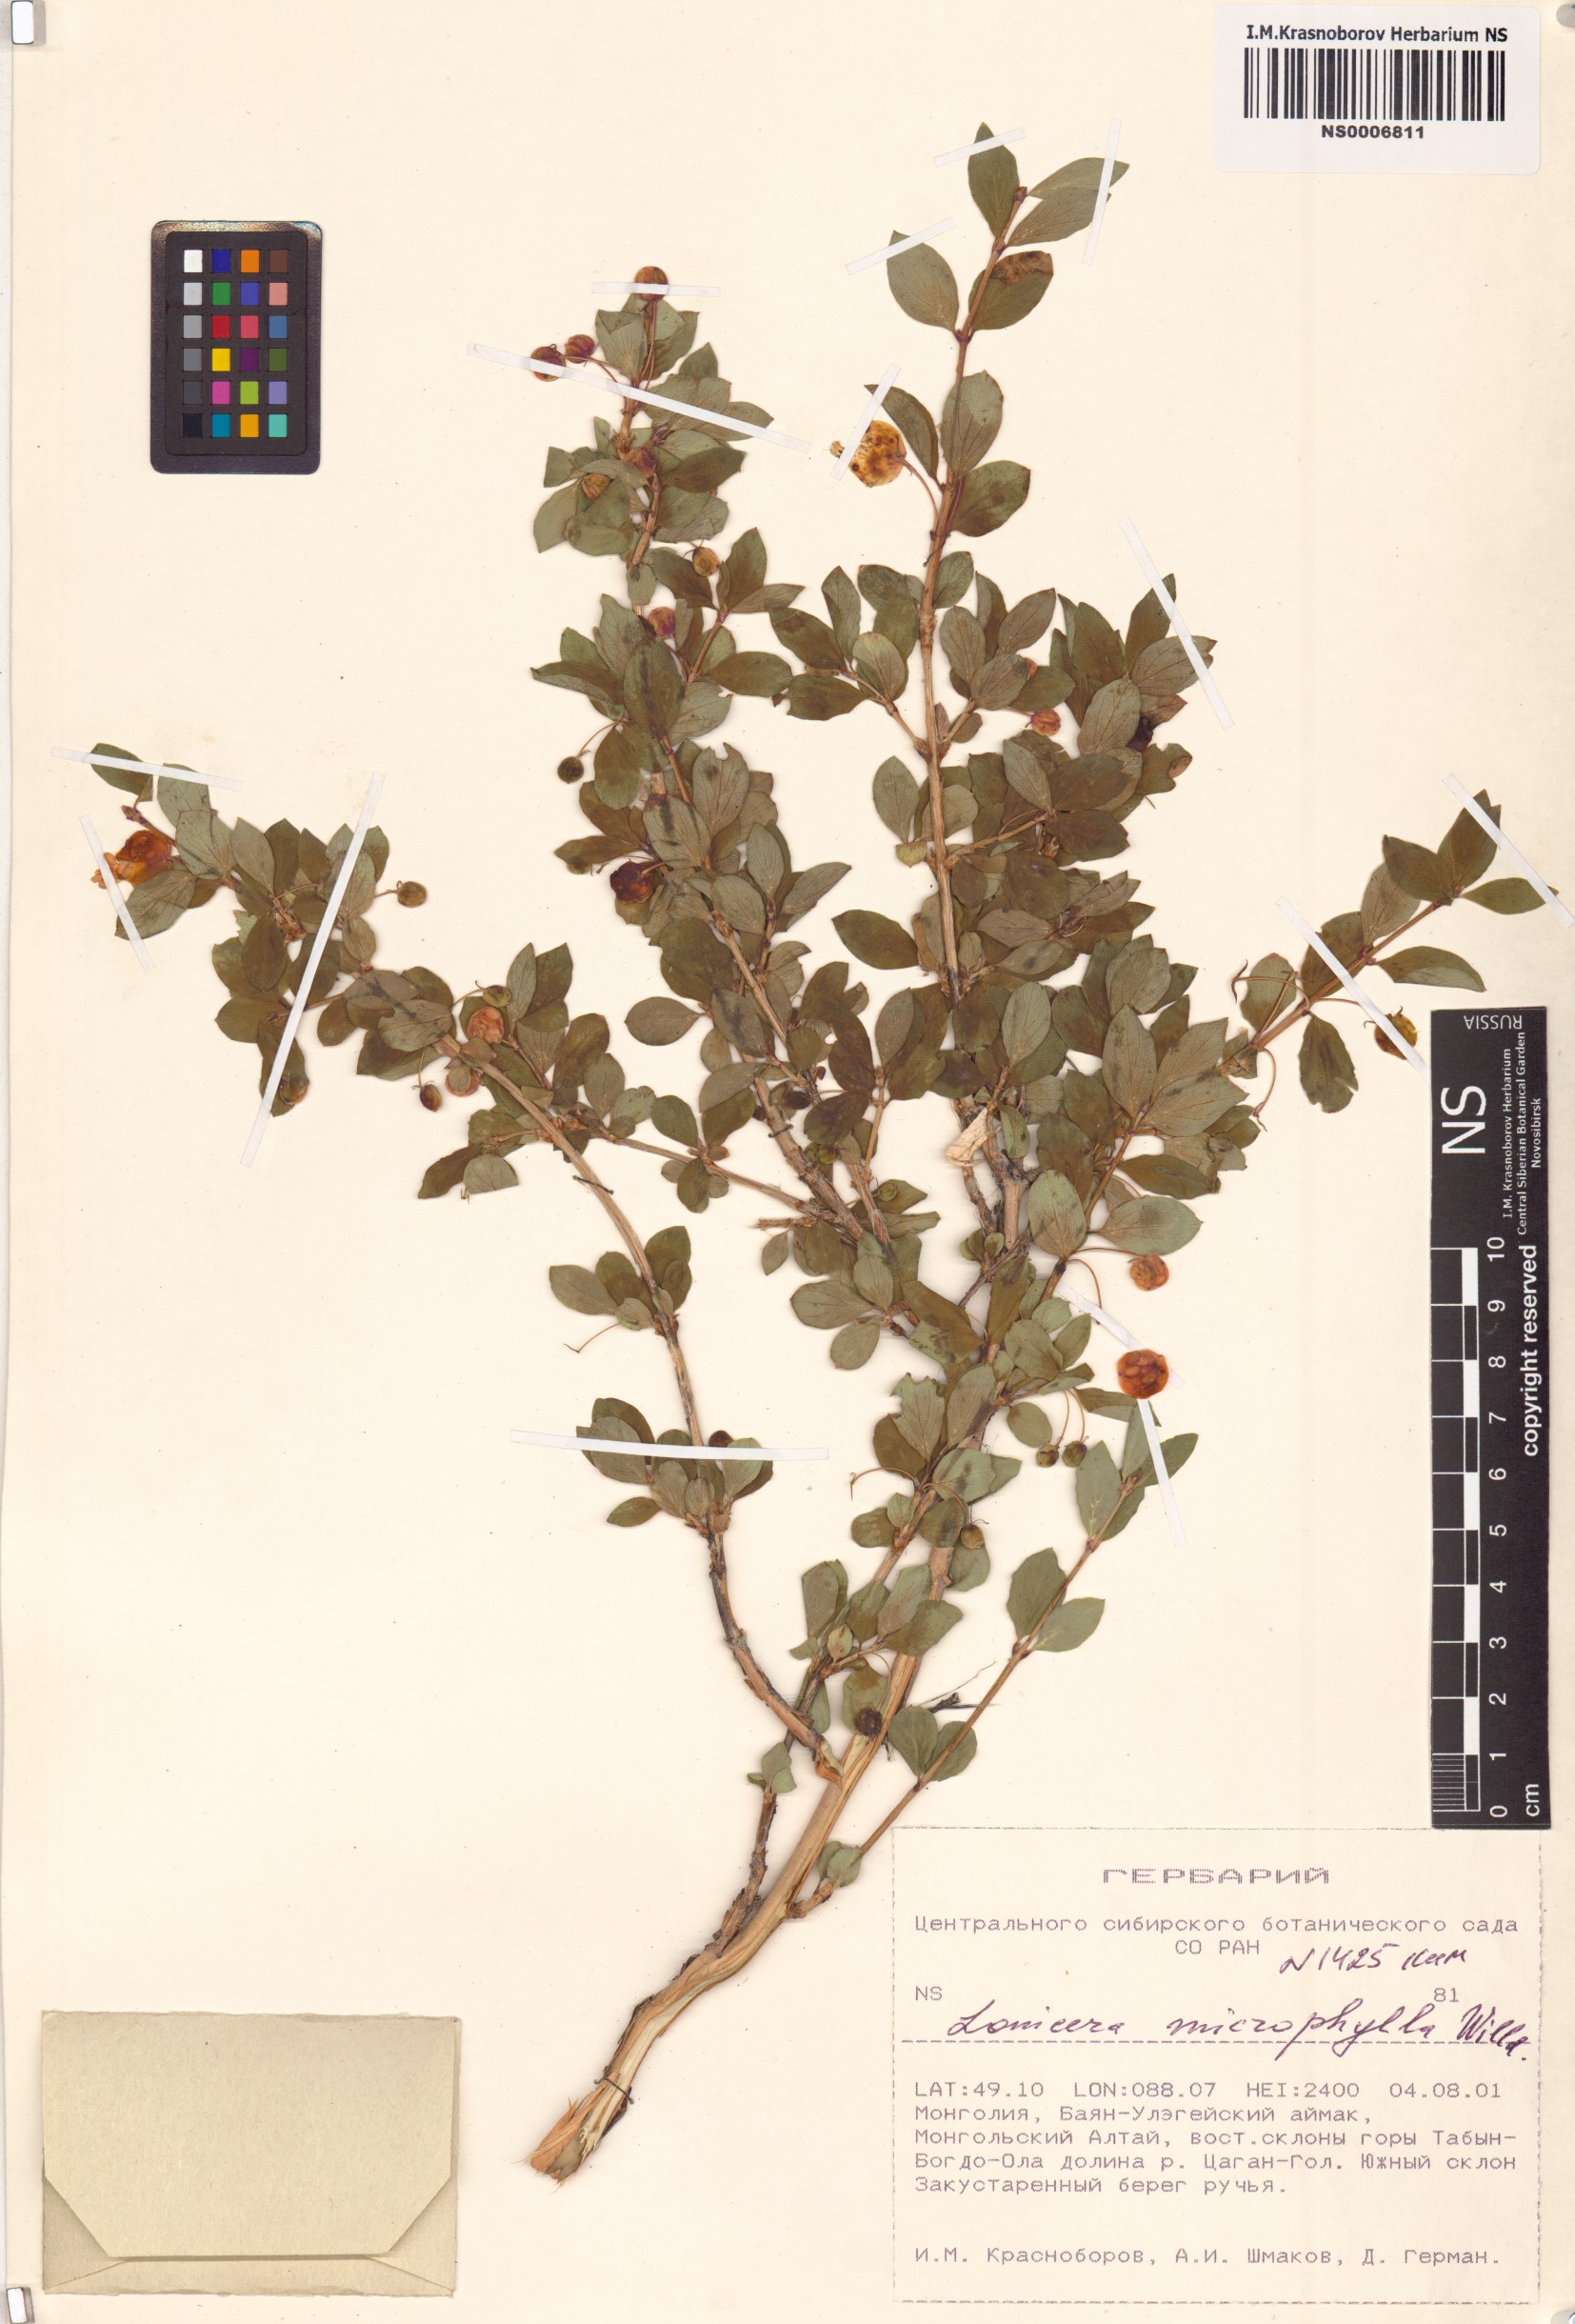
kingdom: Plantae
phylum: Tracheophyta
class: Magnoliopsida
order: Dipsacales
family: Caprifoliaceae
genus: Lonicera
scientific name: Lonicera microphylla
